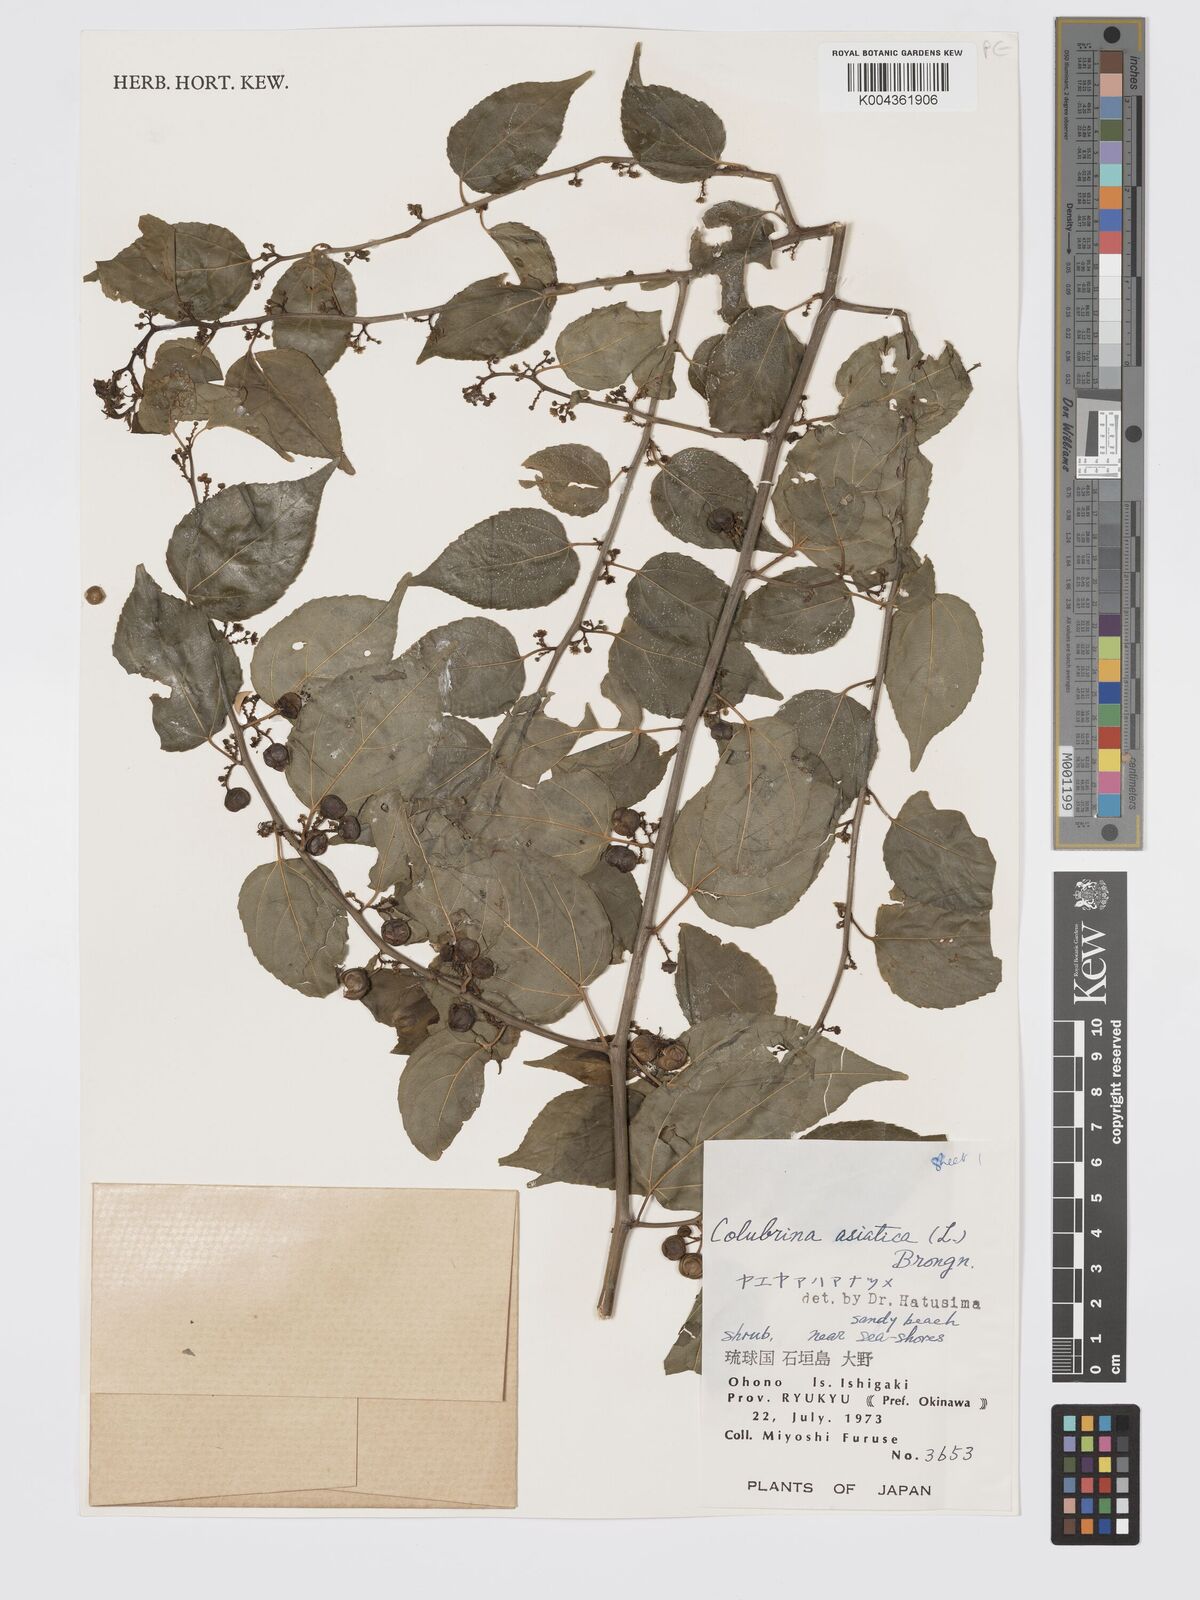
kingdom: Plantae
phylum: Tracheophyta
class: Magnoliopsida
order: Rosales
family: Rhamnaceae
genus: Colubrina
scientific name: Colubrina asiatica
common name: Asian nakedwood
